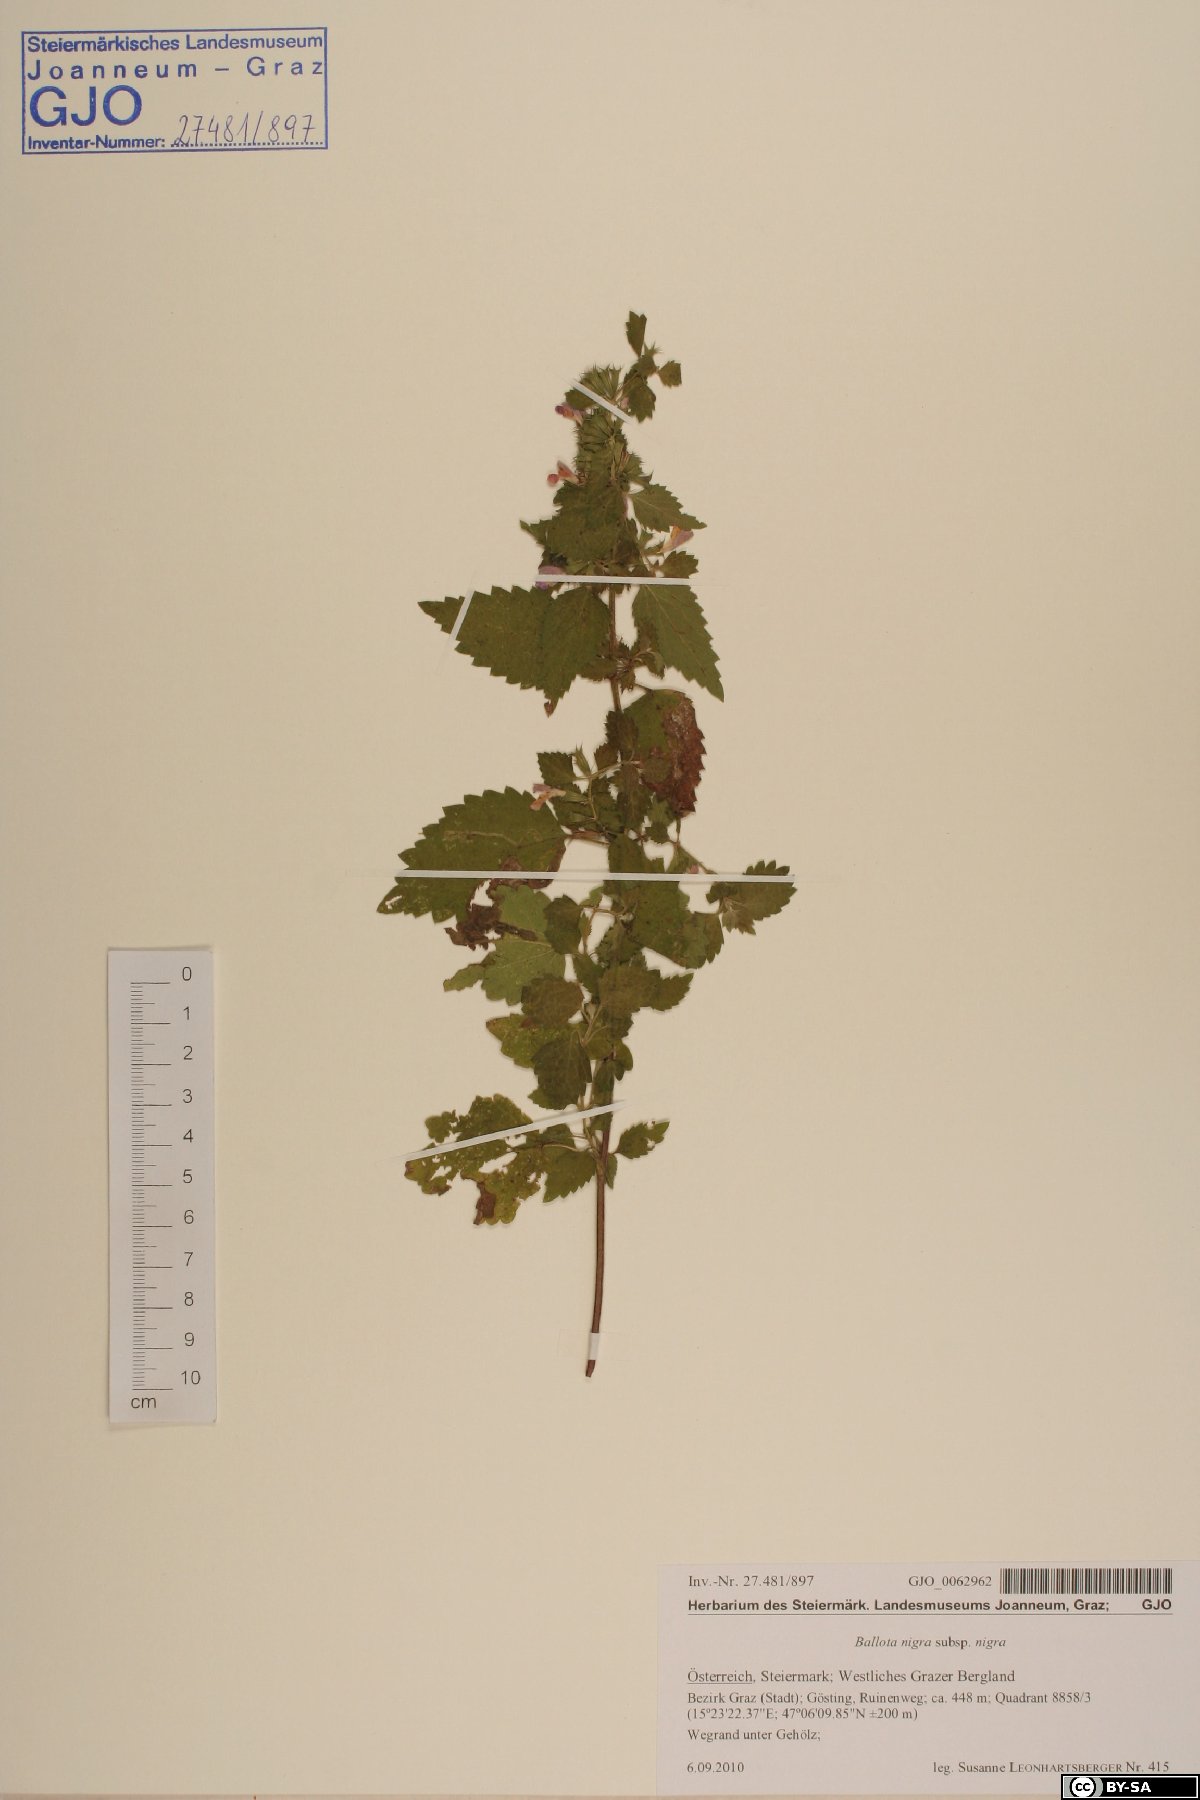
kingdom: Plantae
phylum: Tracheophyta
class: Magnoliopsida
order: Lamiales
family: Lamiaceae
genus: Ballota
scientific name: Ballota nigra
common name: Black horehound
